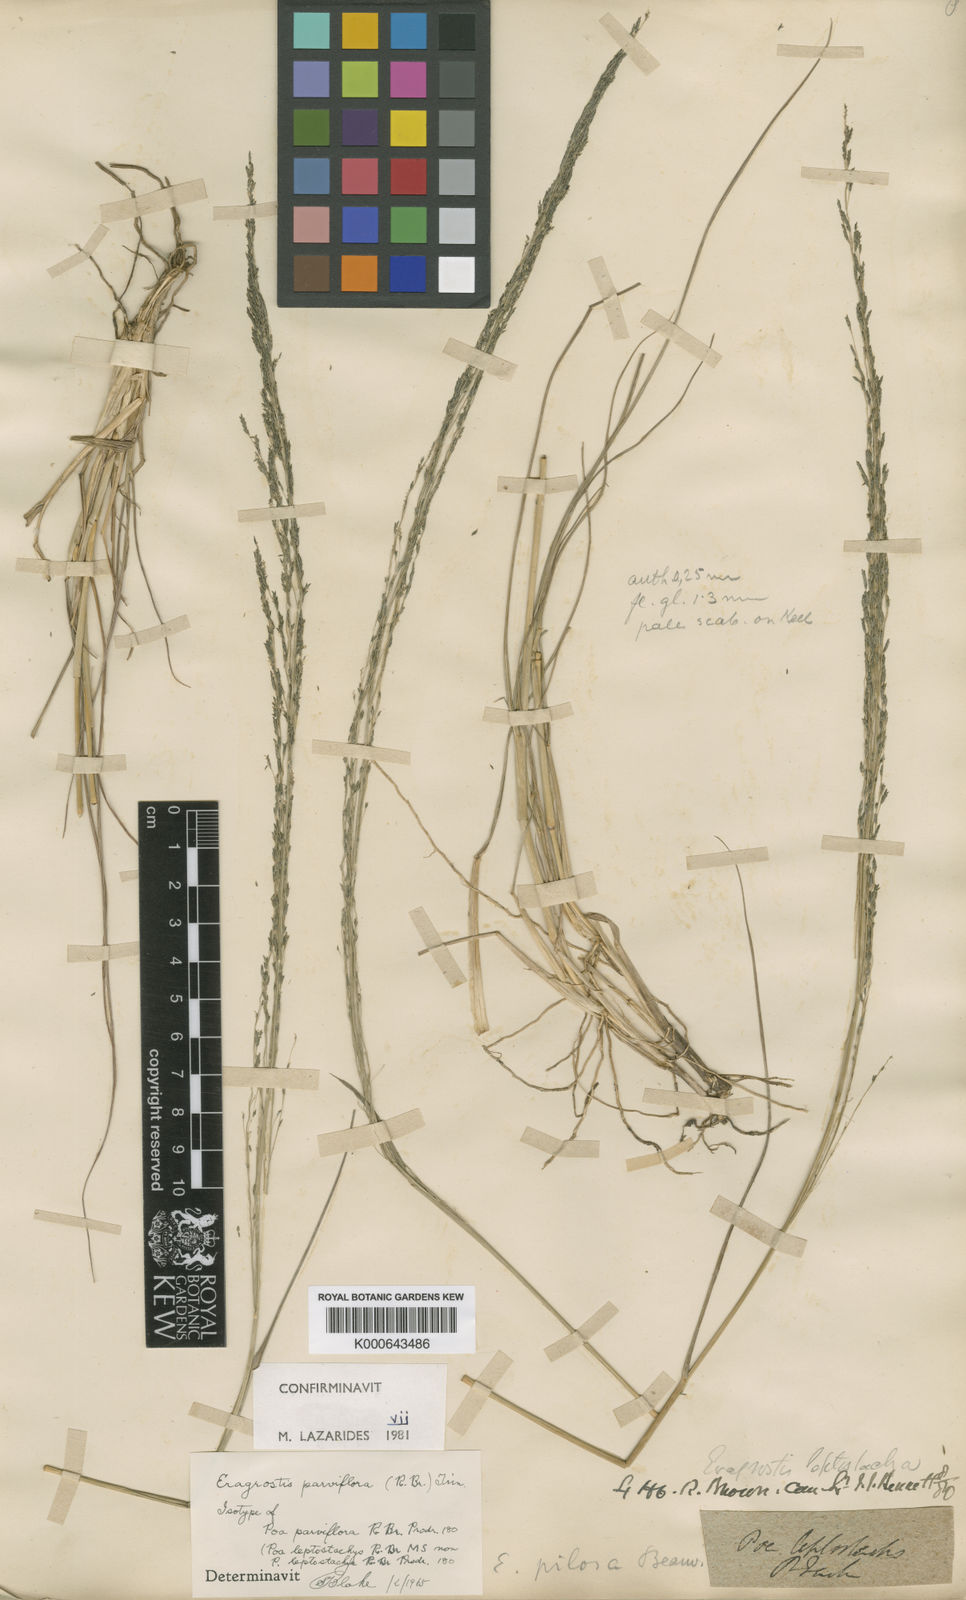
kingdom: Plantae
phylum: Tracheophyta
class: Liliopsida
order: Poales
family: Poaceae
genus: Eragrostis
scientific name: Eragrostis parviflora
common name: Weeping love-grass
